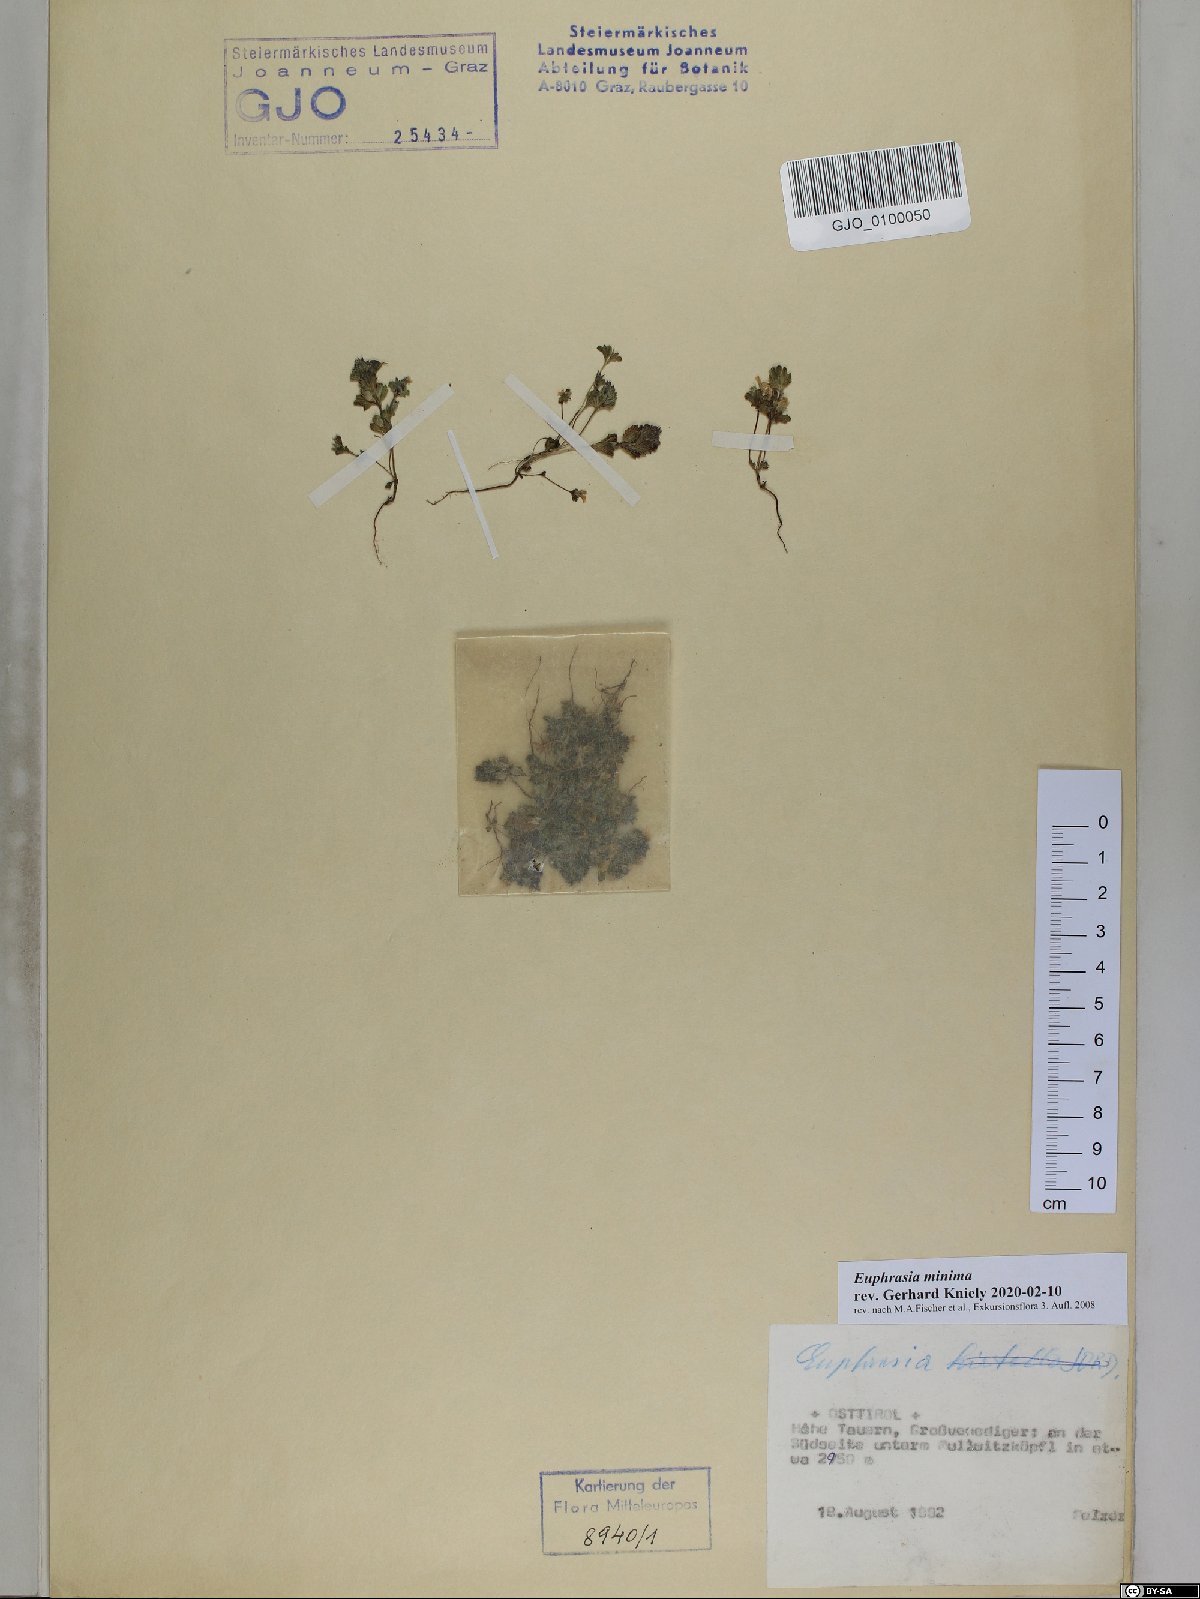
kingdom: Plantae
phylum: Tracheophyta
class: Magnoliopsida
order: Lamiales
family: Orobanchaceae
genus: Euphrasia
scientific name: Euphrasia minima
